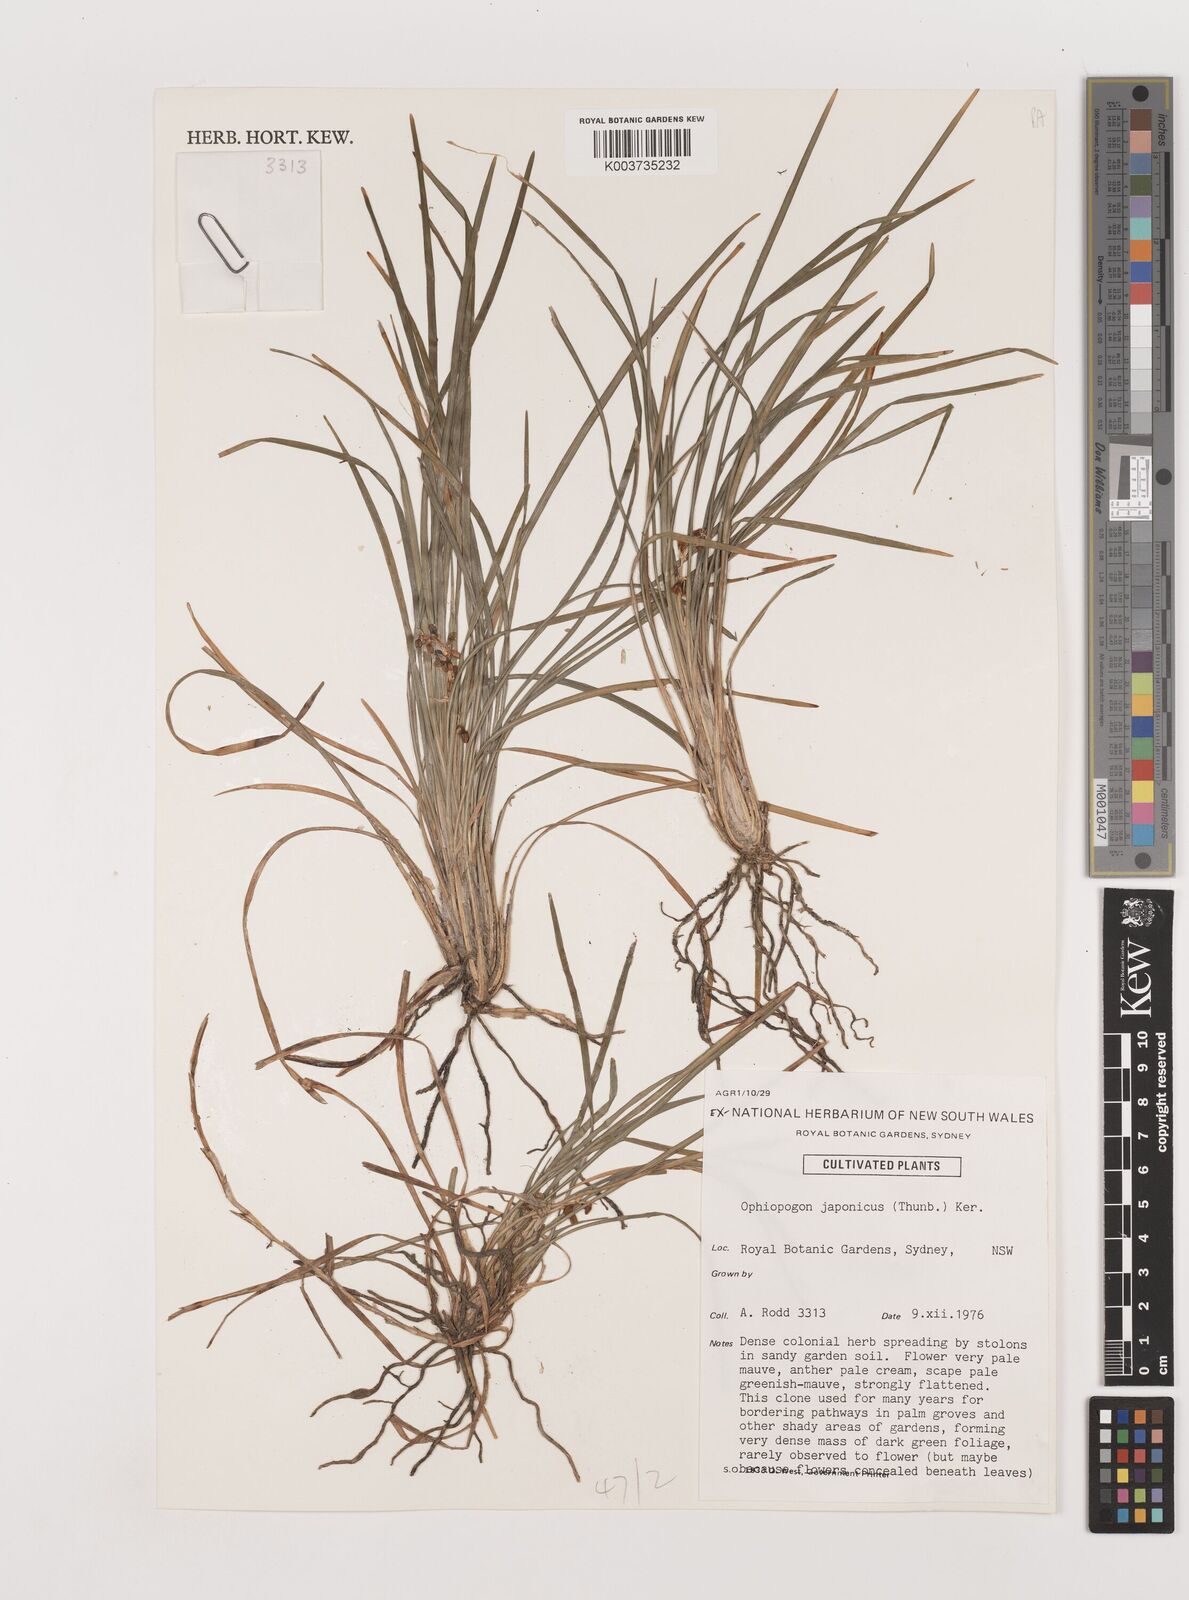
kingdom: Plantae
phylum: Tracheophyta
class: Liliopsida
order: Asparagales
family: Asparagaceae
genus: Ophiopogon
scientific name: Ophiopogon japonicus
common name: Dwarf lilyturf
